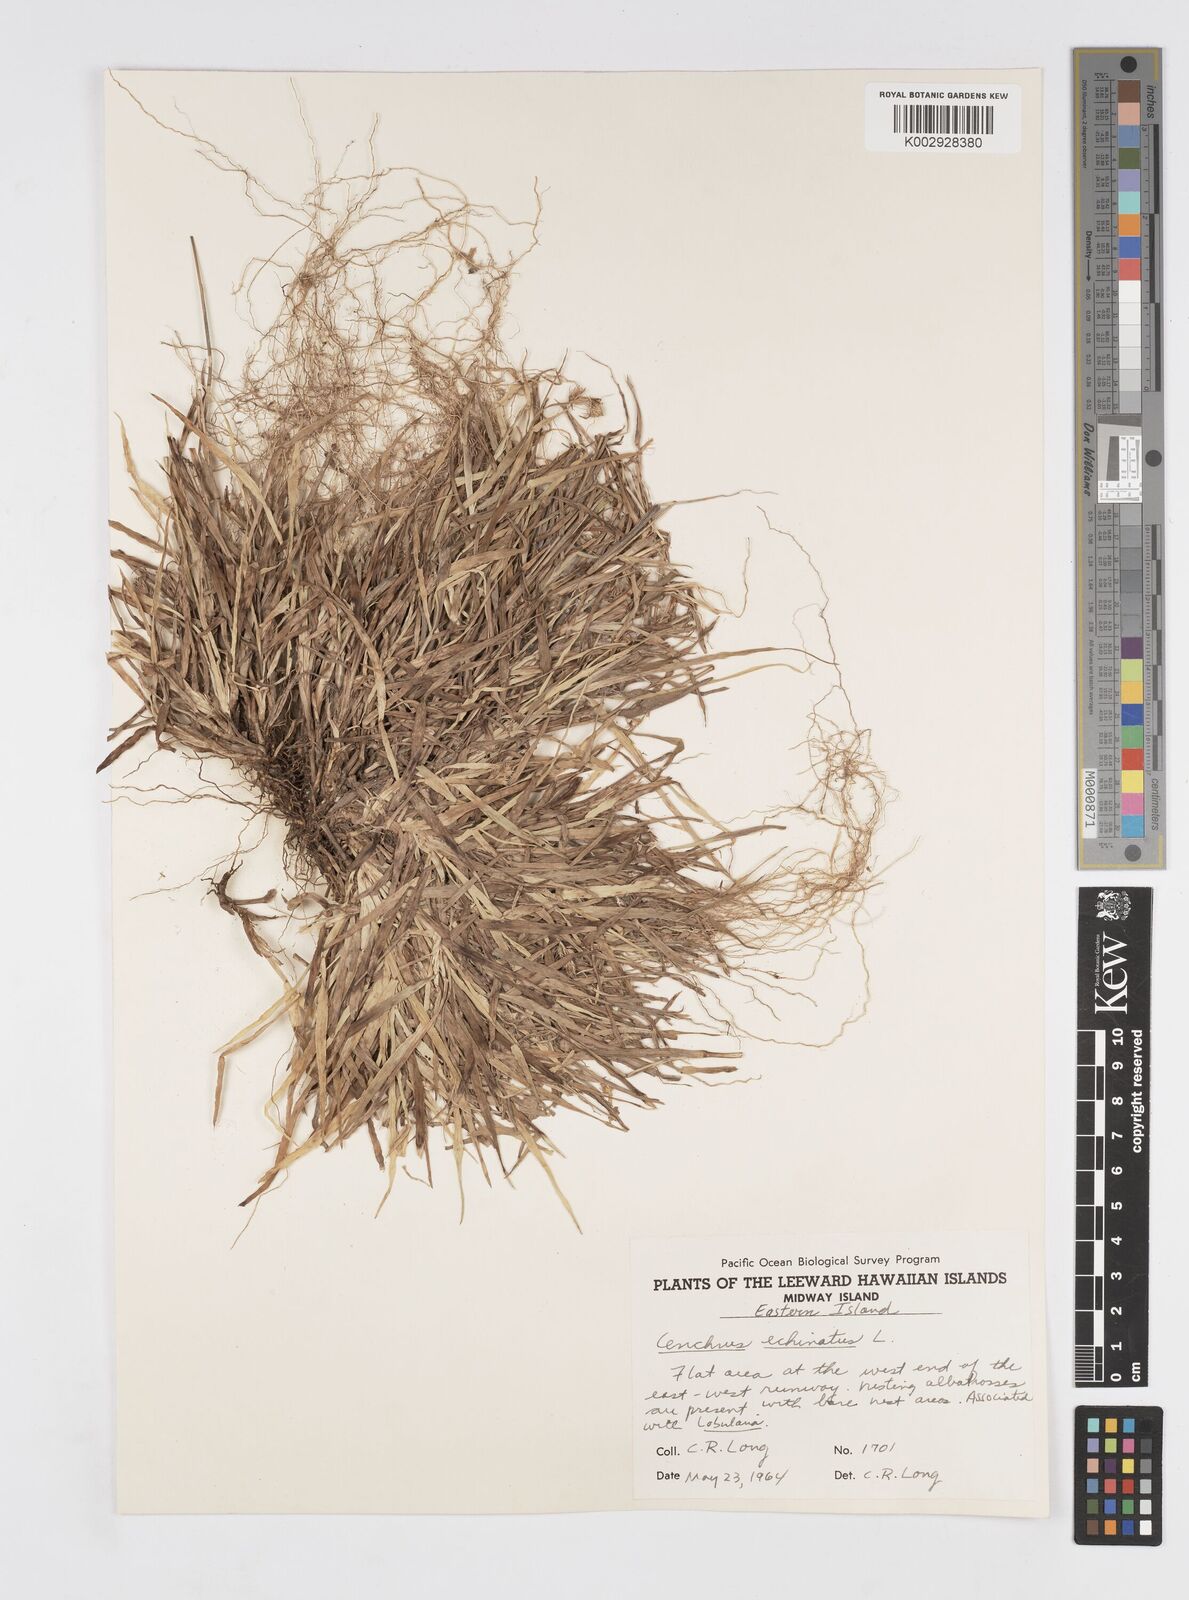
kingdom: Plantae
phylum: Tracheophyta
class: Liliopsida
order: Poales
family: Poaceae
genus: Cenchrus
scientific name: Cenchrus echinatus
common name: Southern sandbur
